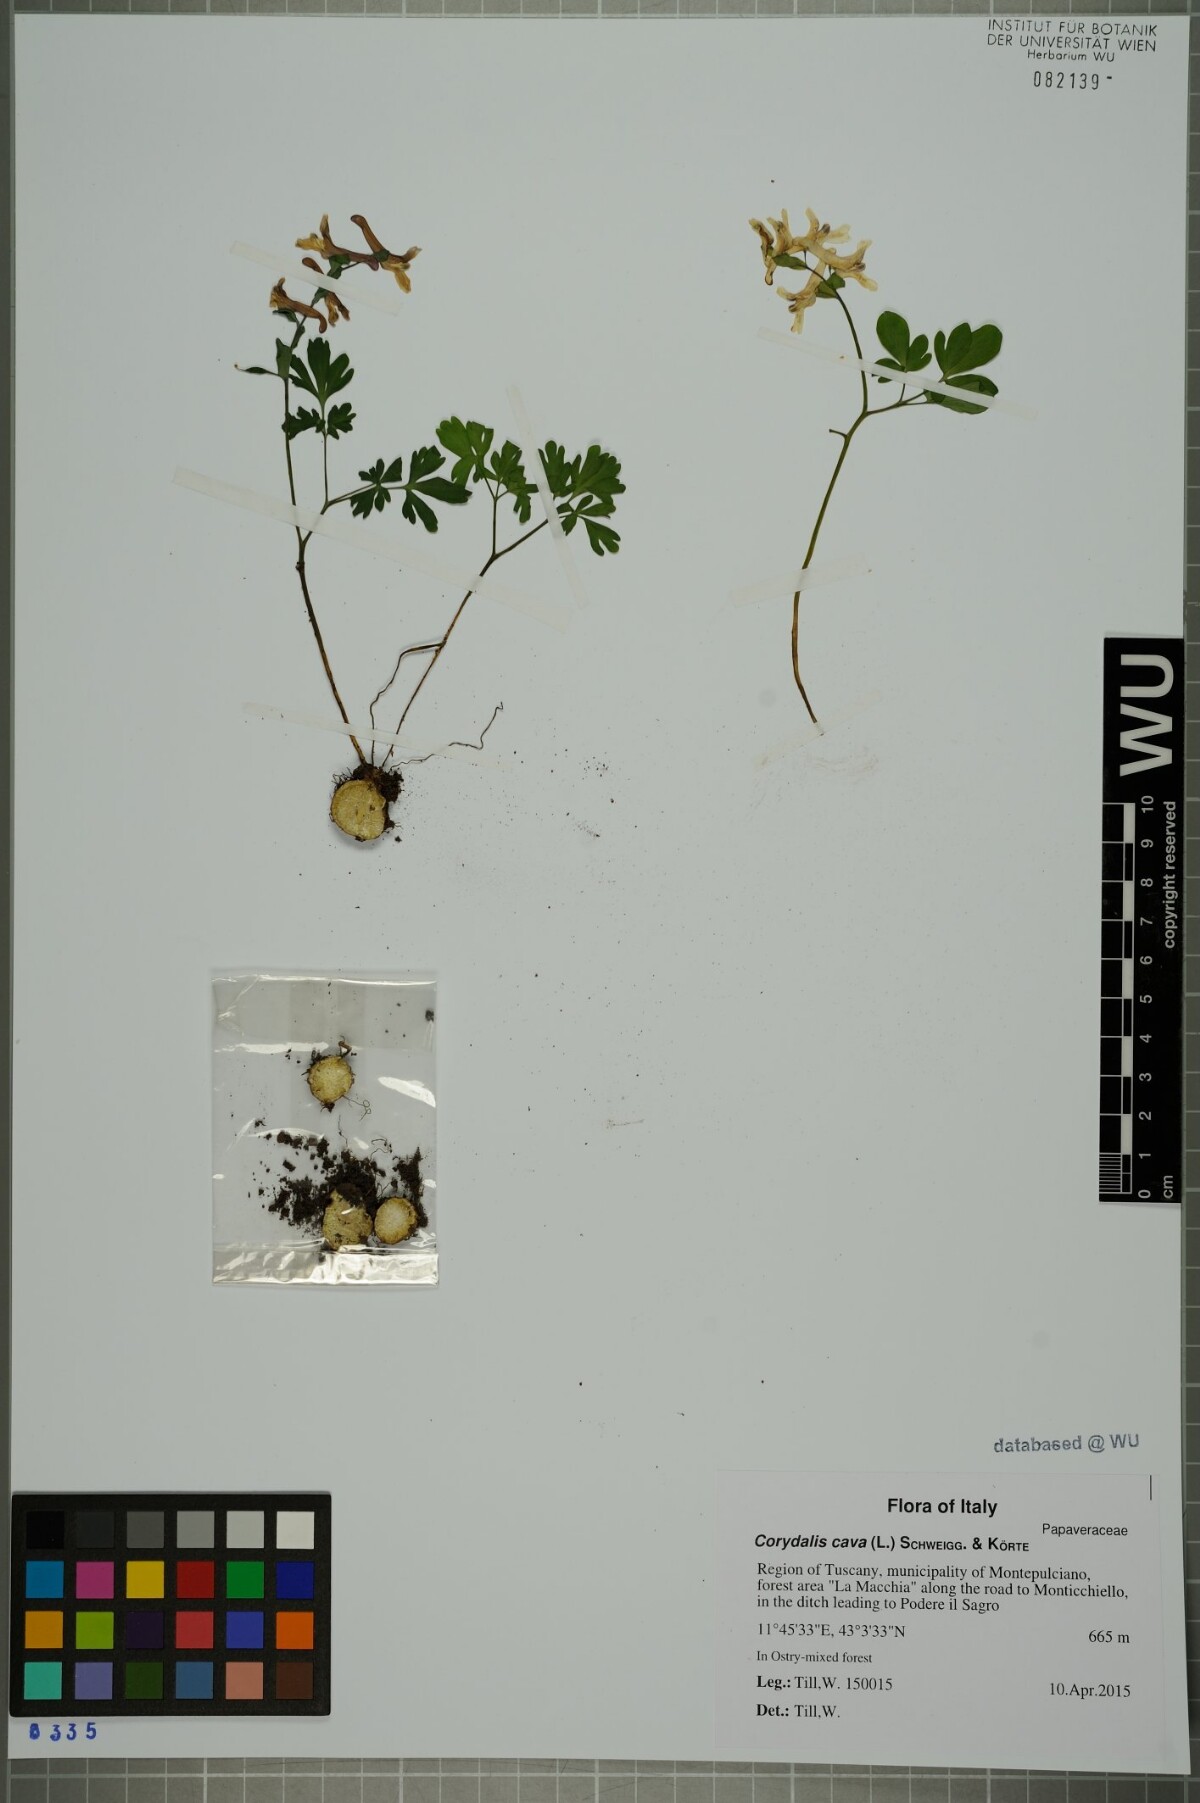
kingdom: Plantae
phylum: Tracheophyta
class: Magnoliopsida
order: Ranunculales
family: Papaveraceae
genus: Corydalis
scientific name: Corydalis cava
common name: Hollowroot
